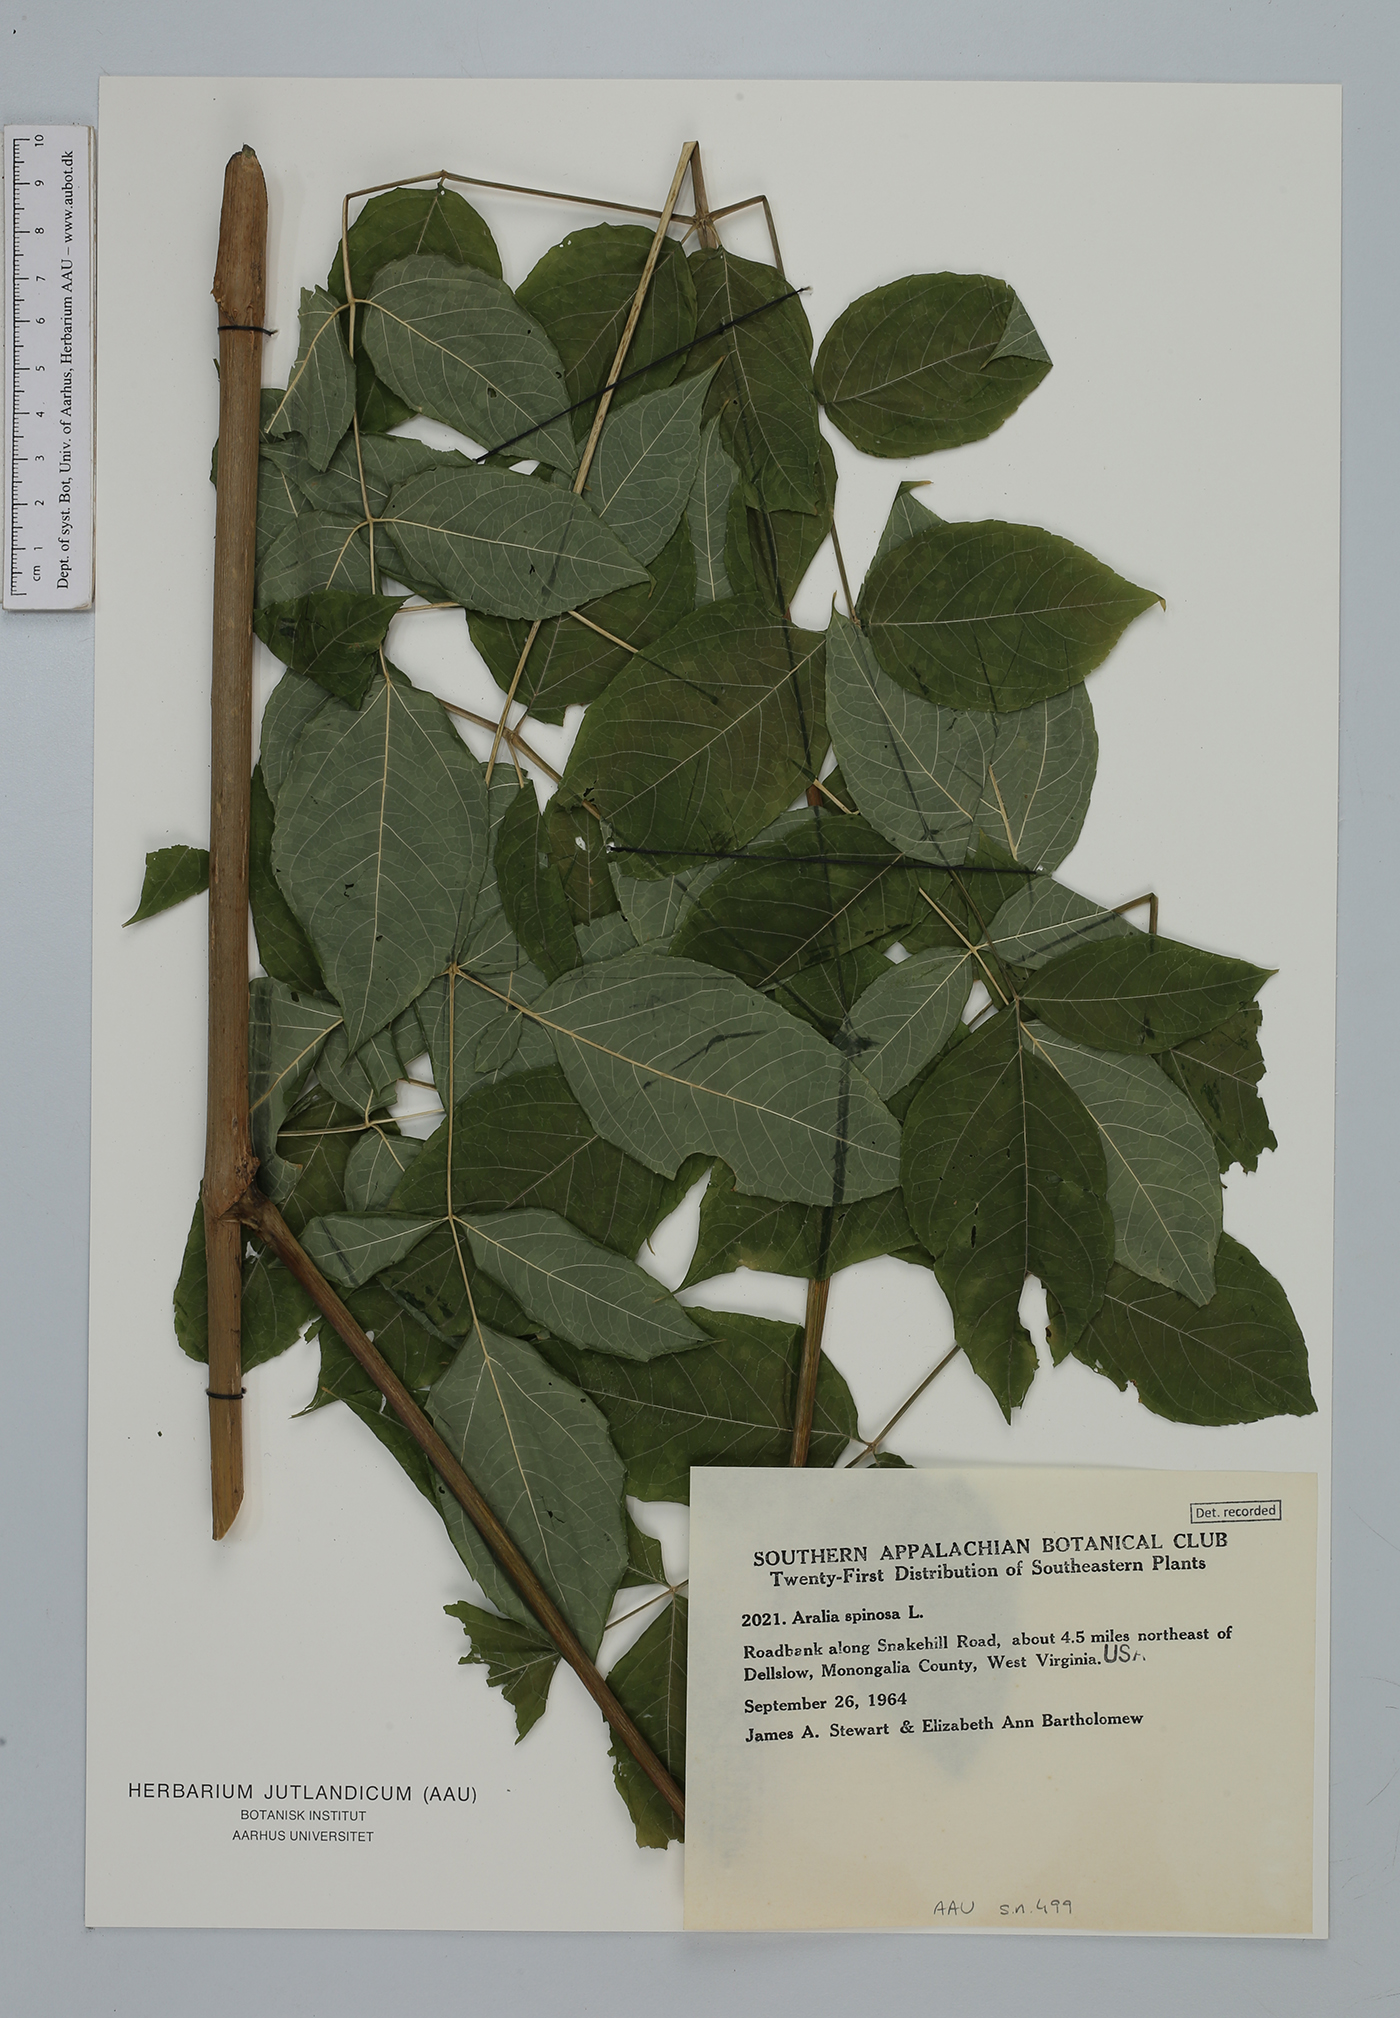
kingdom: Plantae
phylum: Tracheophyta
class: Magnoliopsida
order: Apiales
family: Araliaceae
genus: Aralia
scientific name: Aralia spinosa
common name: Hercules'-club
